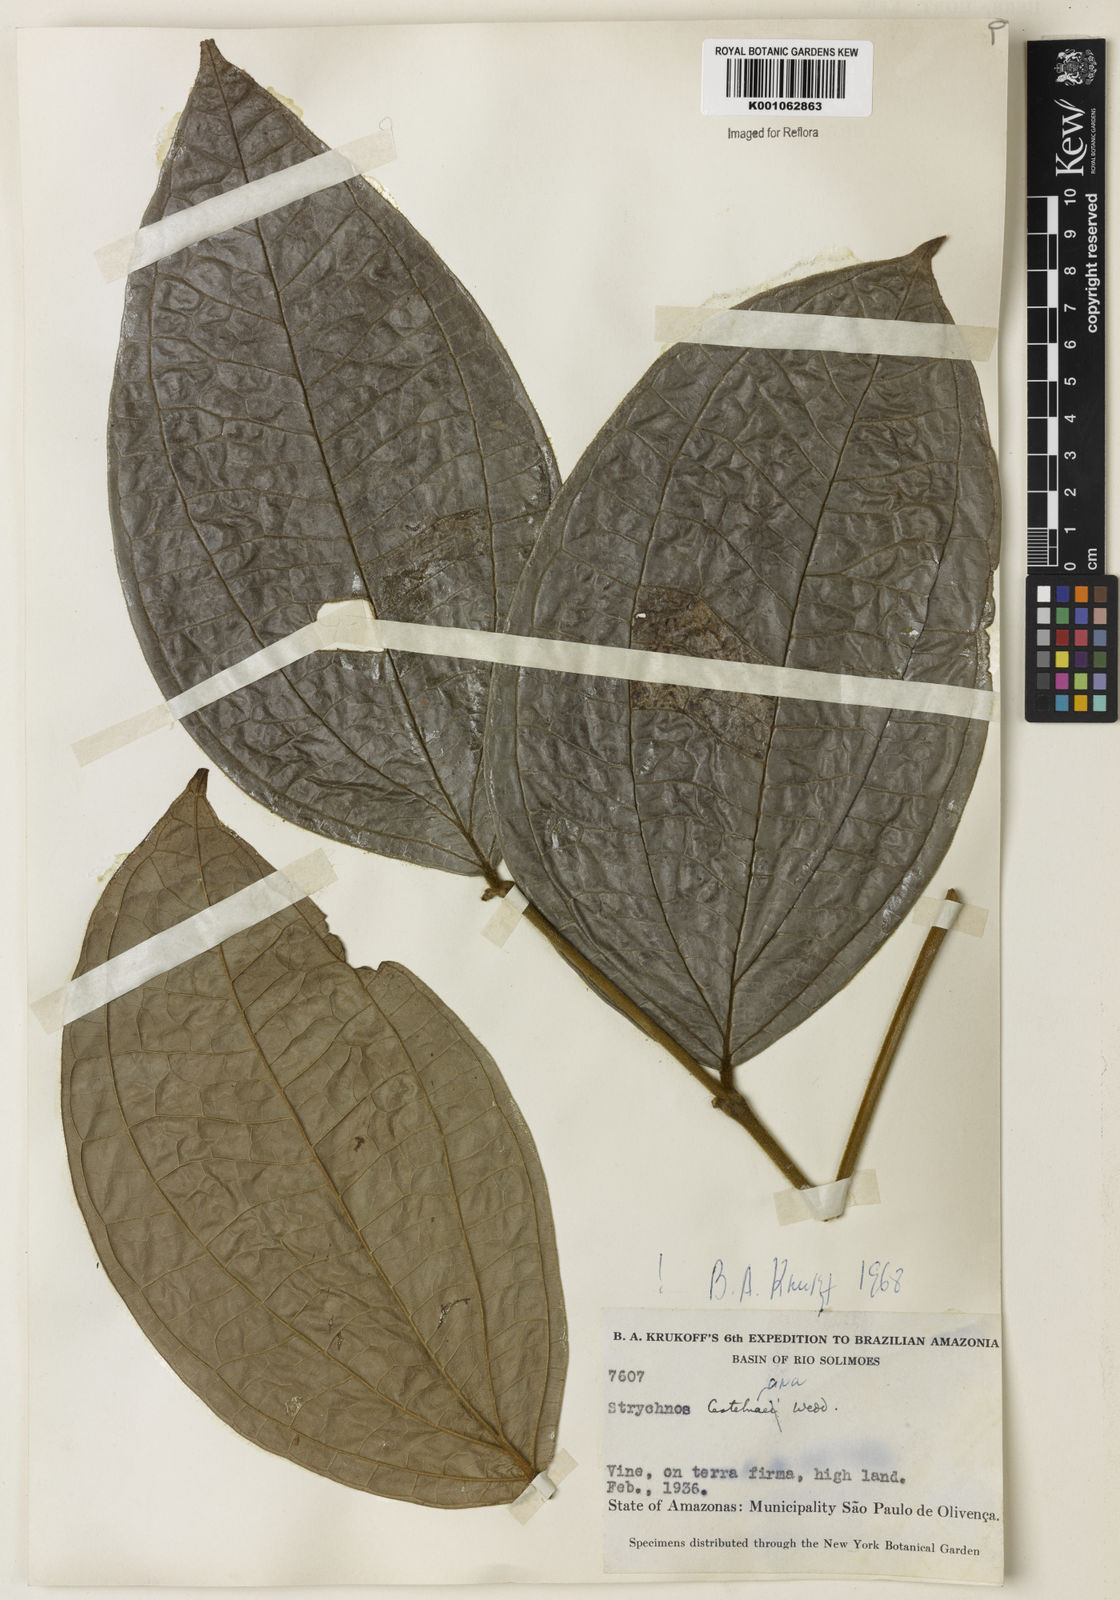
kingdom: Plantae
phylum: Tracheophyta
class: Magnoliopsida
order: Gentianales
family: Loganiaceae
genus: Strychnos
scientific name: Strychnos
